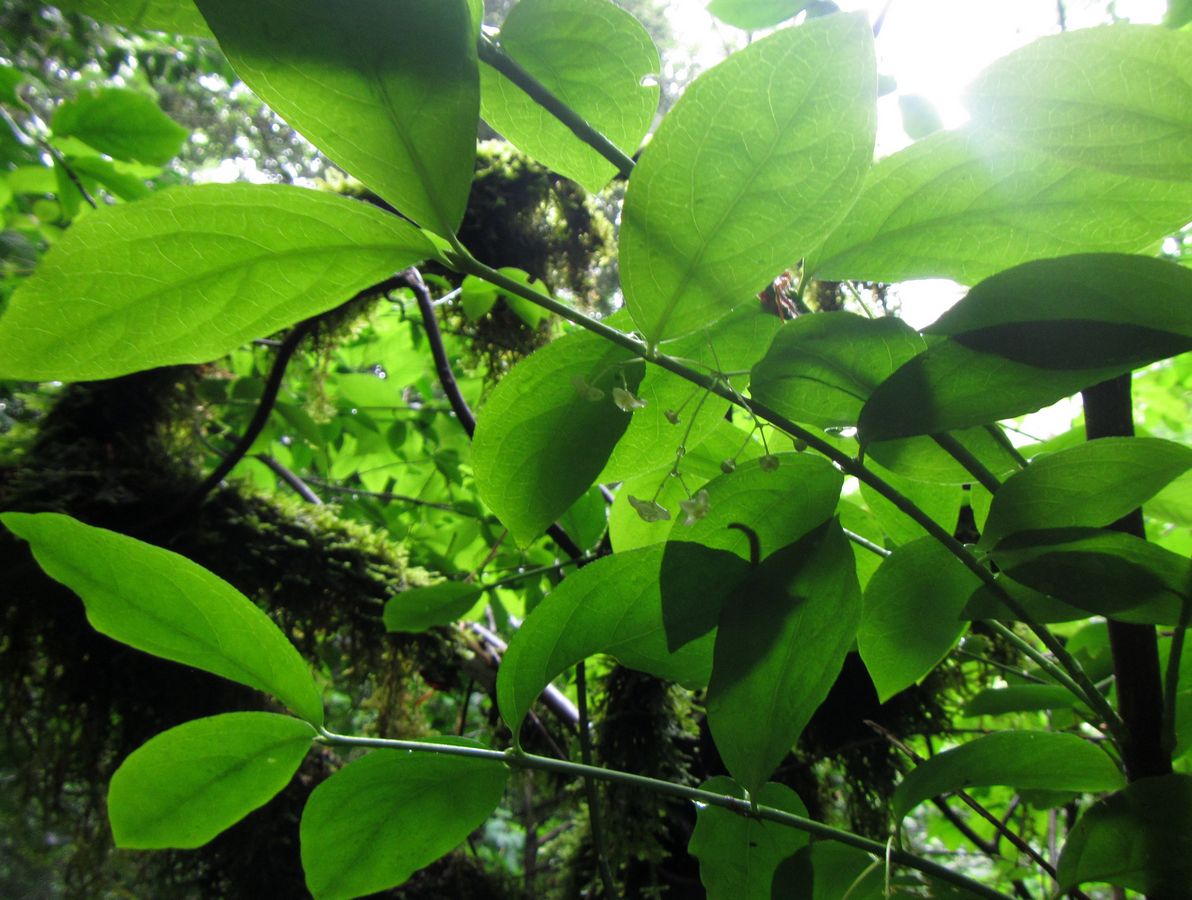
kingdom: Plantae
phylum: Tracheophyta
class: Magnoliopsida
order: Celastrales
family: Celastraceae
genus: Euonymus
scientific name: Euonymus latifolius
